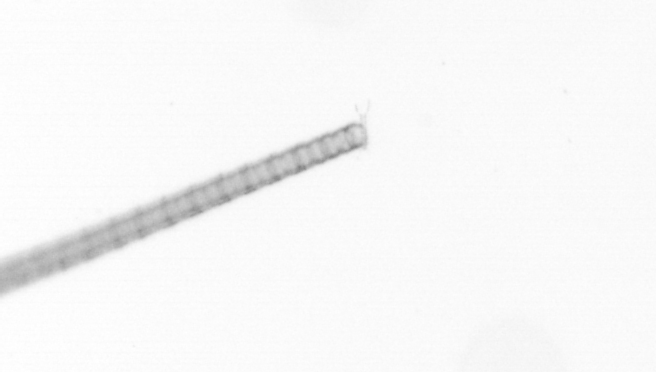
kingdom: Chromista
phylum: Ochrophyta
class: Bacillariophyceae
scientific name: Bacillariophyceae
